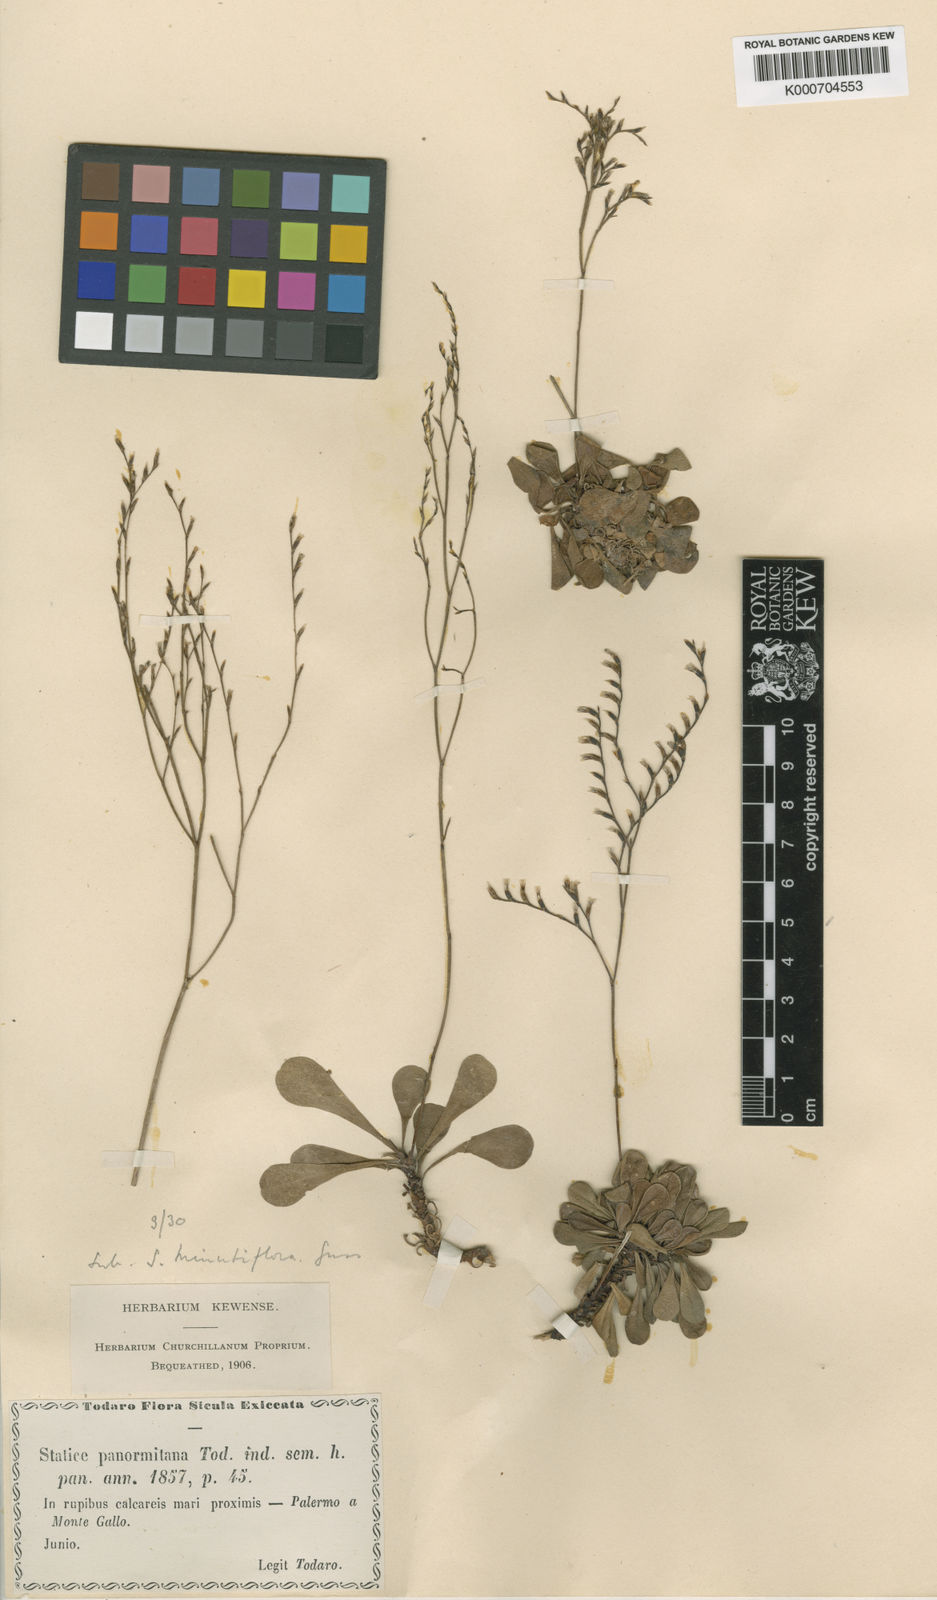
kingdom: Plantae
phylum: Tracheophyta
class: Magnoliopsida
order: Caryophyllales
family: Plumbaginaceae
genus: Limonium
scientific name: Limonium panormitanum
